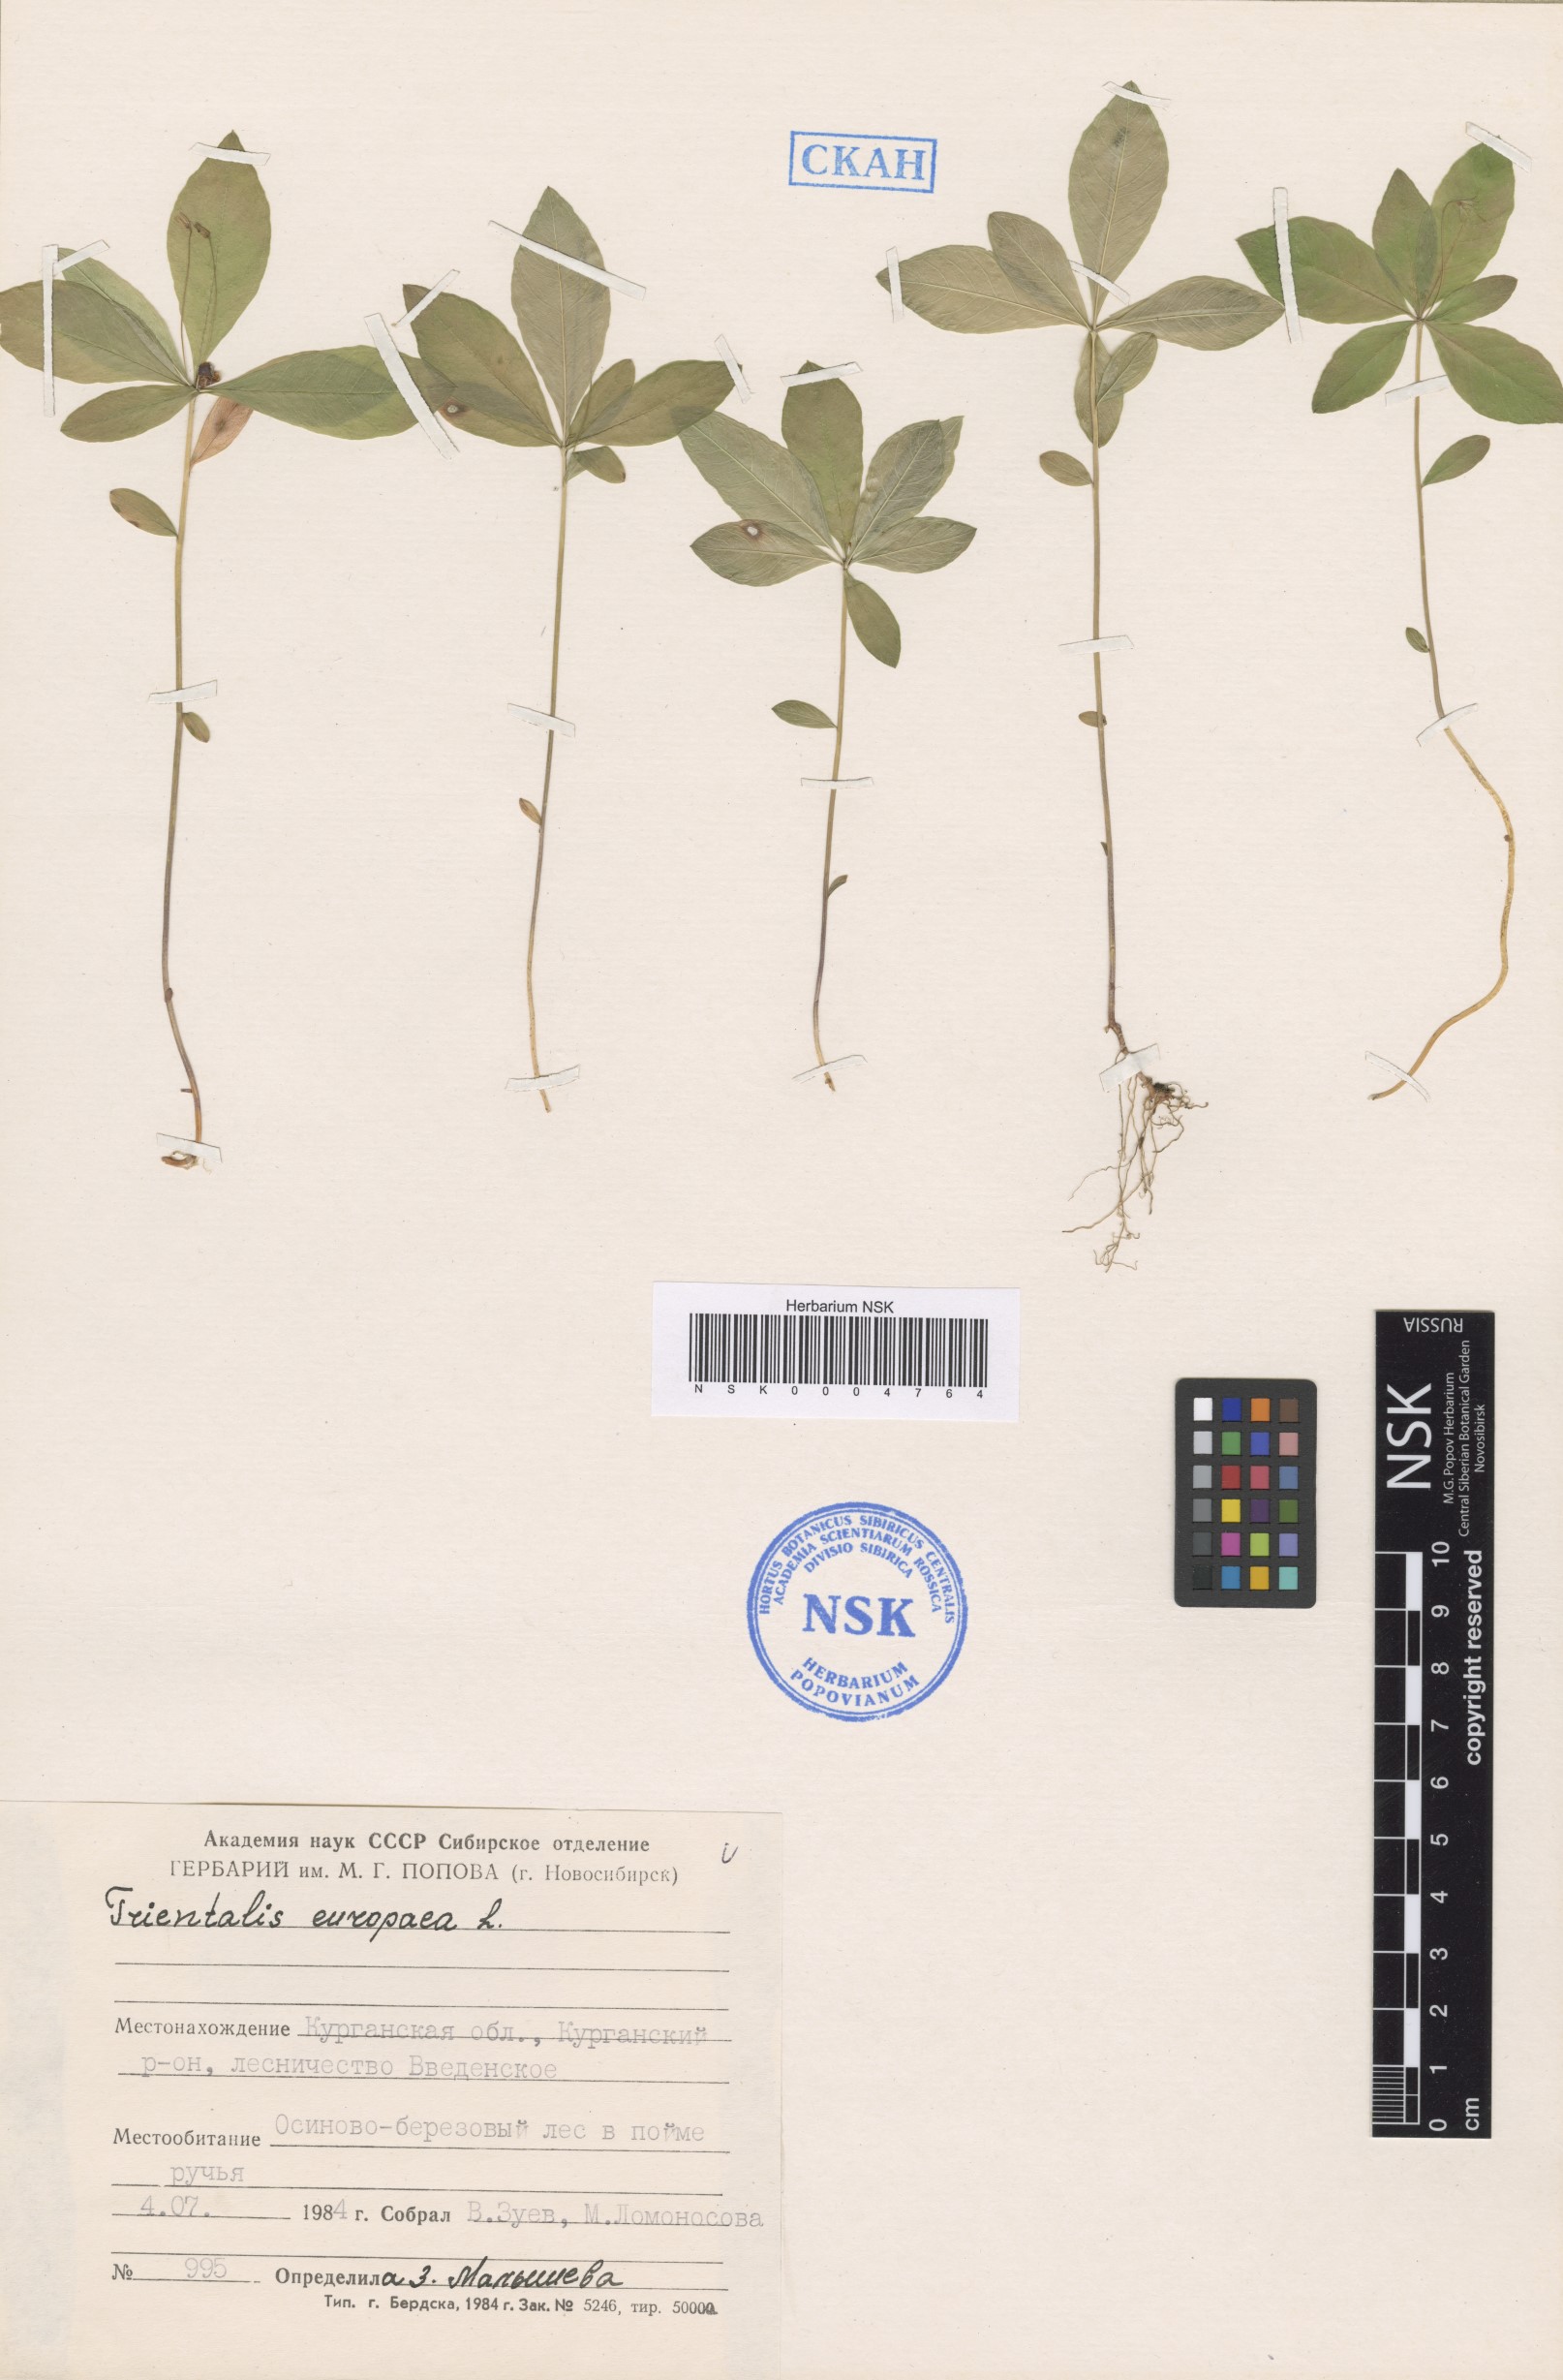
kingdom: Plantae
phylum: Tracheophyta
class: Magnoliopsida
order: Ericales
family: Primulaceae
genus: Lysimachia
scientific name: Lysimachia europaea
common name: Arctic starflower
